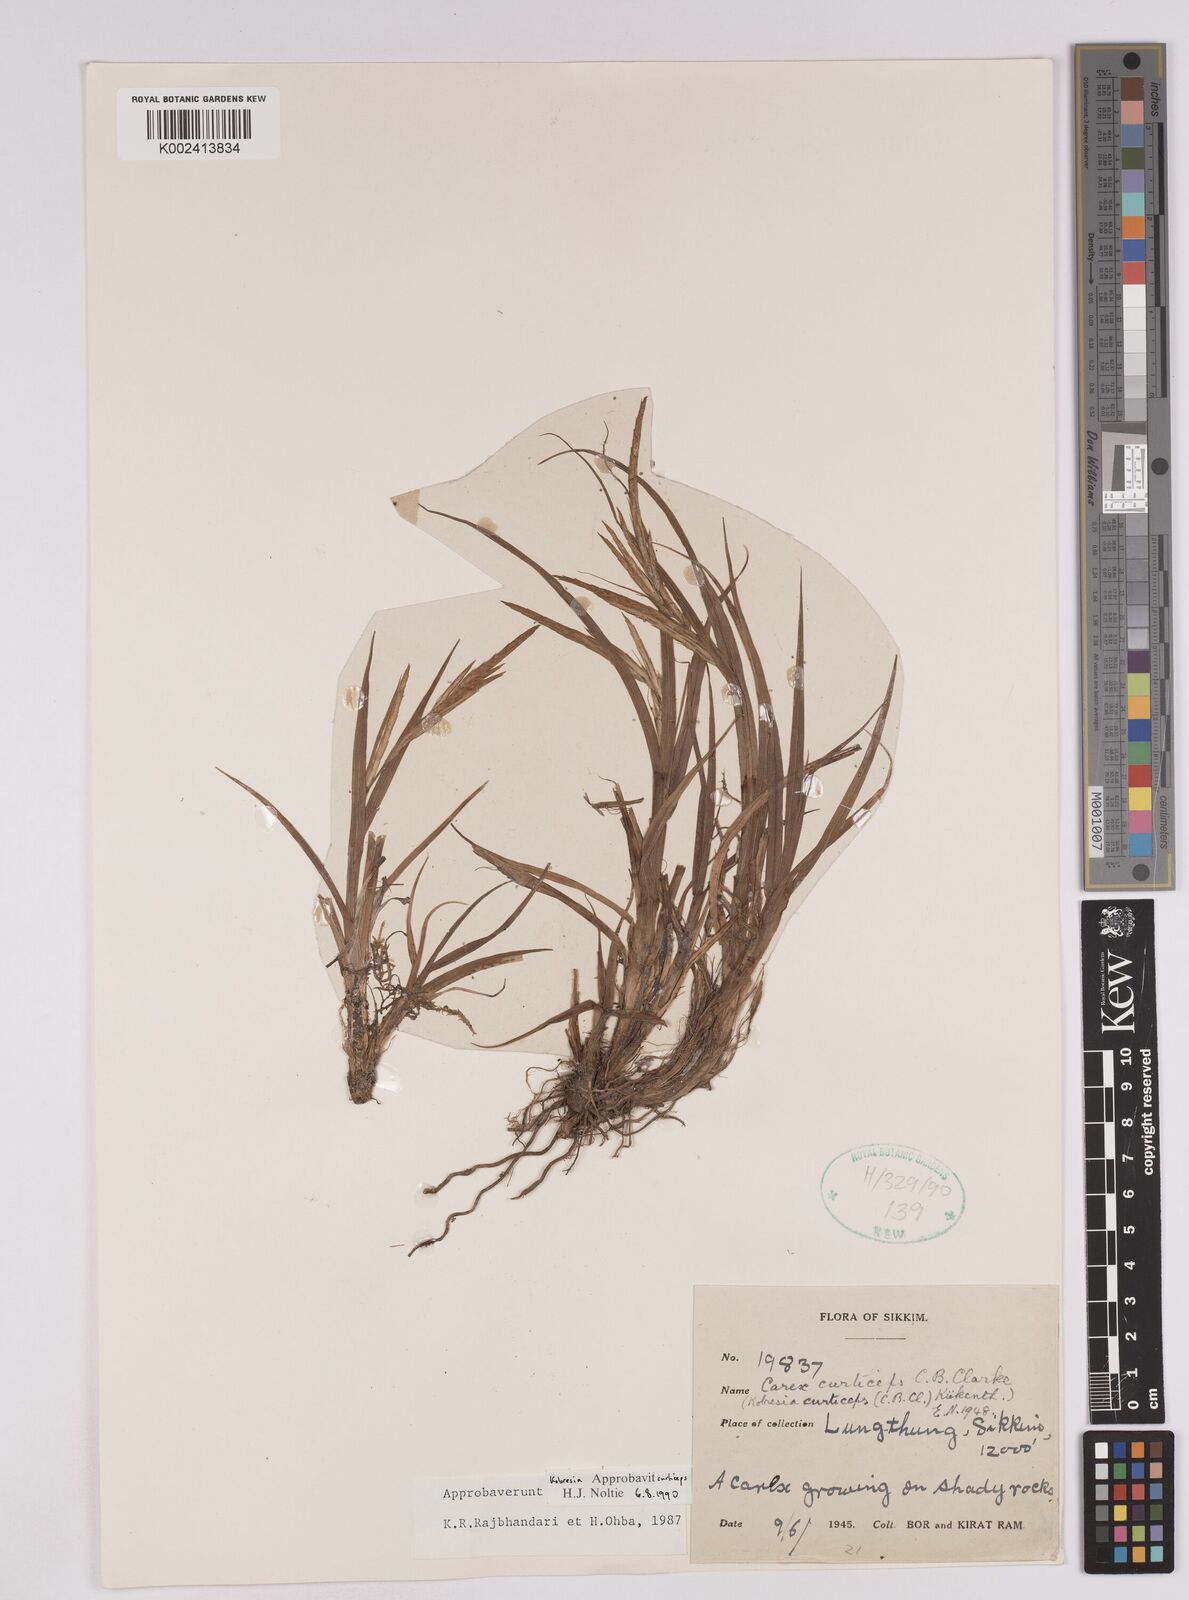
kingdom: Plantae
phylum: Tracheophyta
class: Liliopsida
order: Poales
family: Cyperaceae
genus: Carex
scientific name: Carex curticeps
